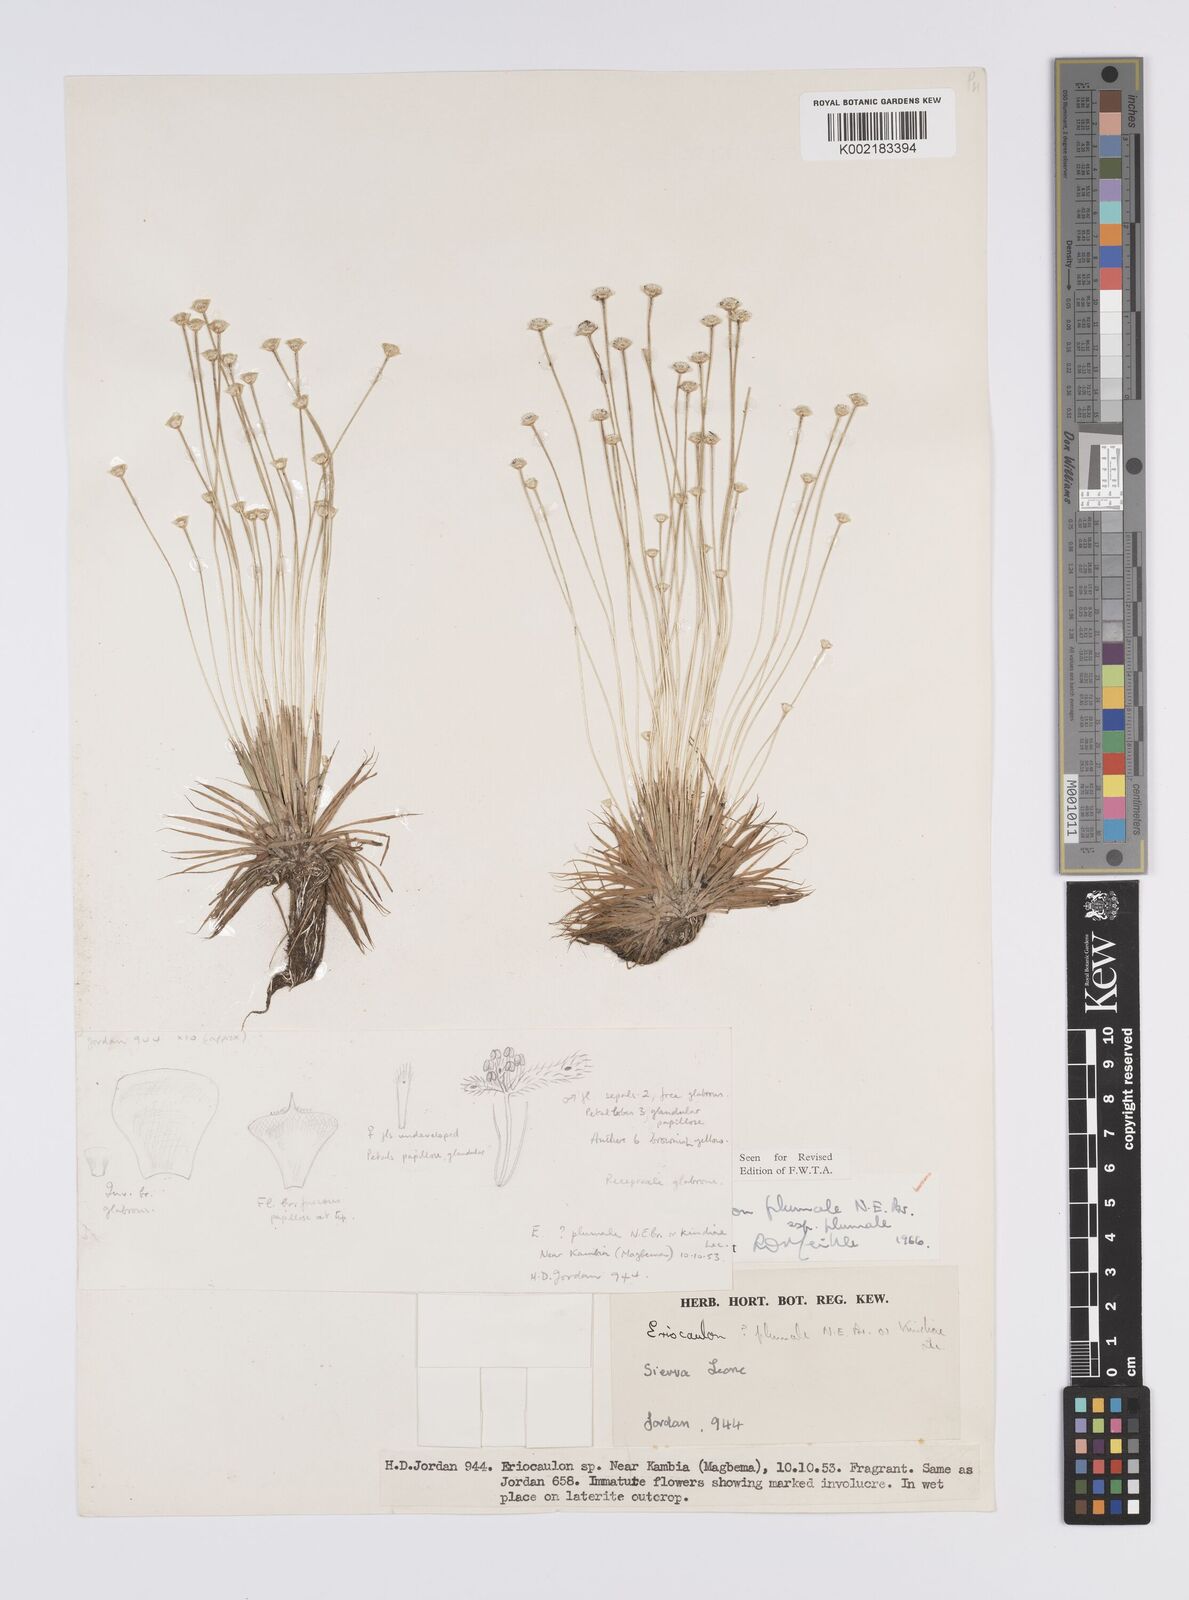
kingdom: Plantae
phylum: Tracheophyta
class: Liliopsida
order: Poales
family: Eriocaulaceae
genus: Eriocaulon
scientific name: Eriocaulon plumale
